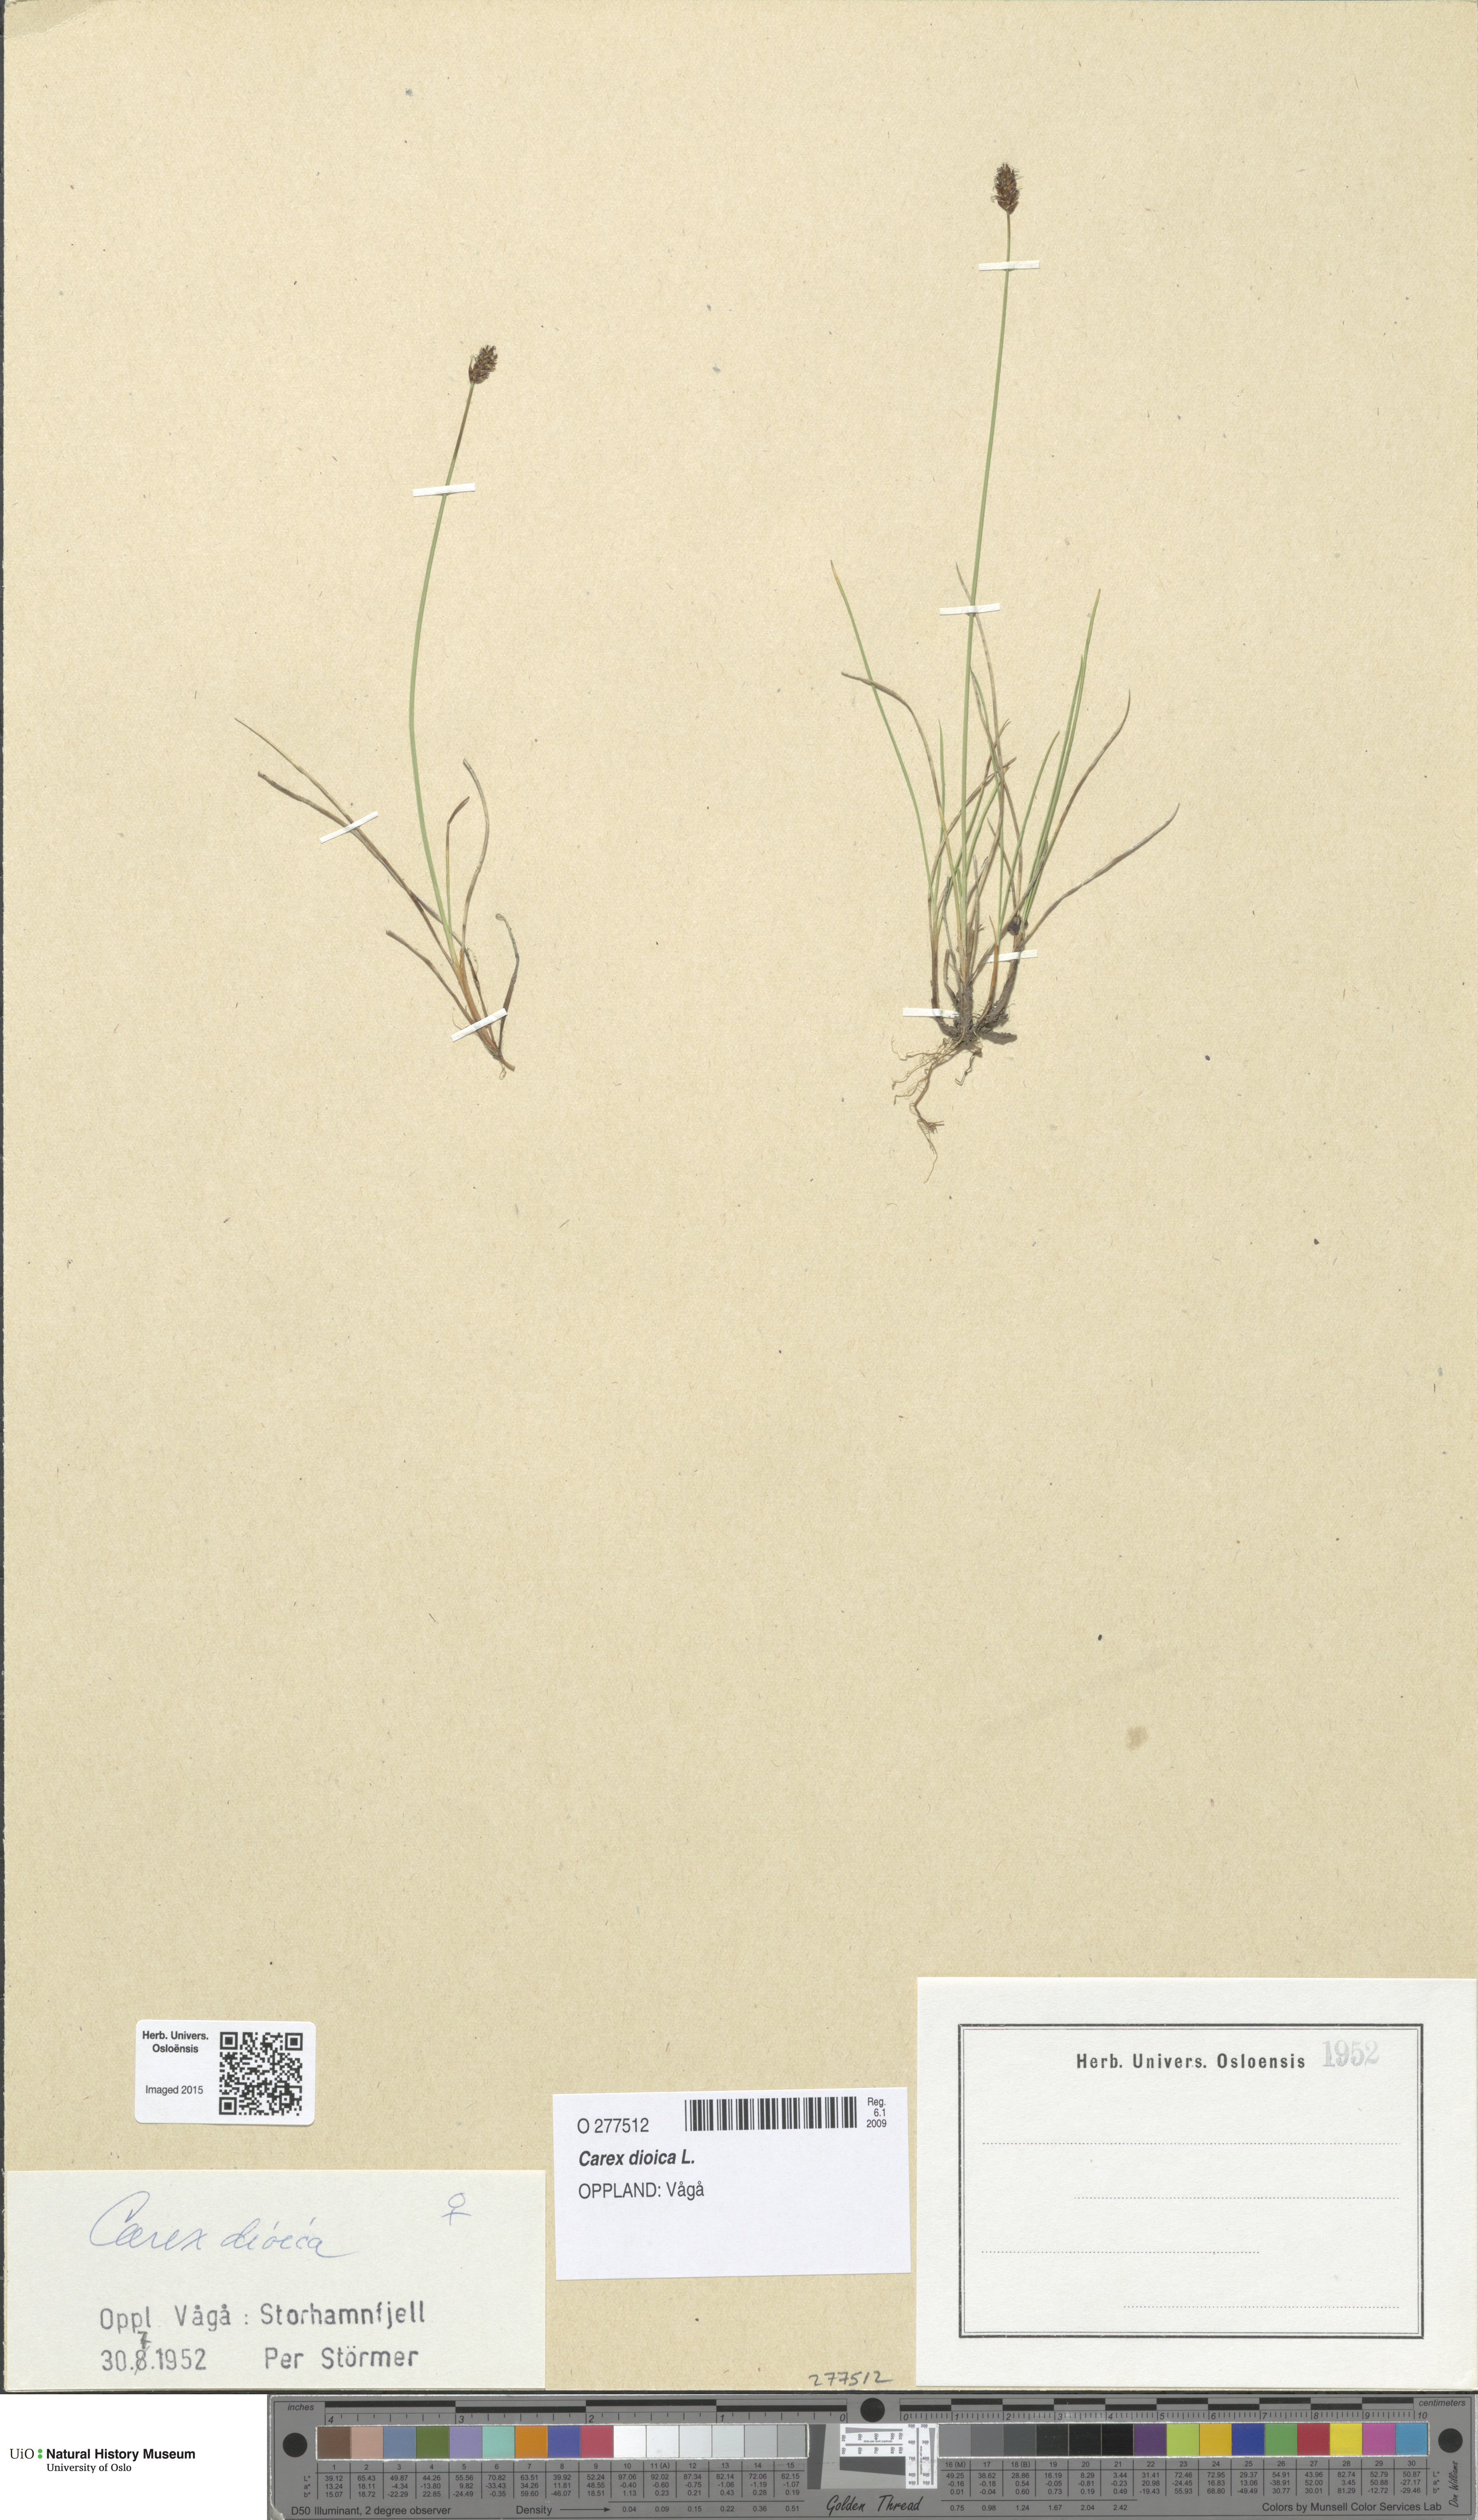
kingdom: Plantae
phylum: Tracheophyta
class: Liliopsida
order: Poales
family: Cyperaceae
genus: Carex
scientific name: Carex dioica
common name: Dioecious sedge
